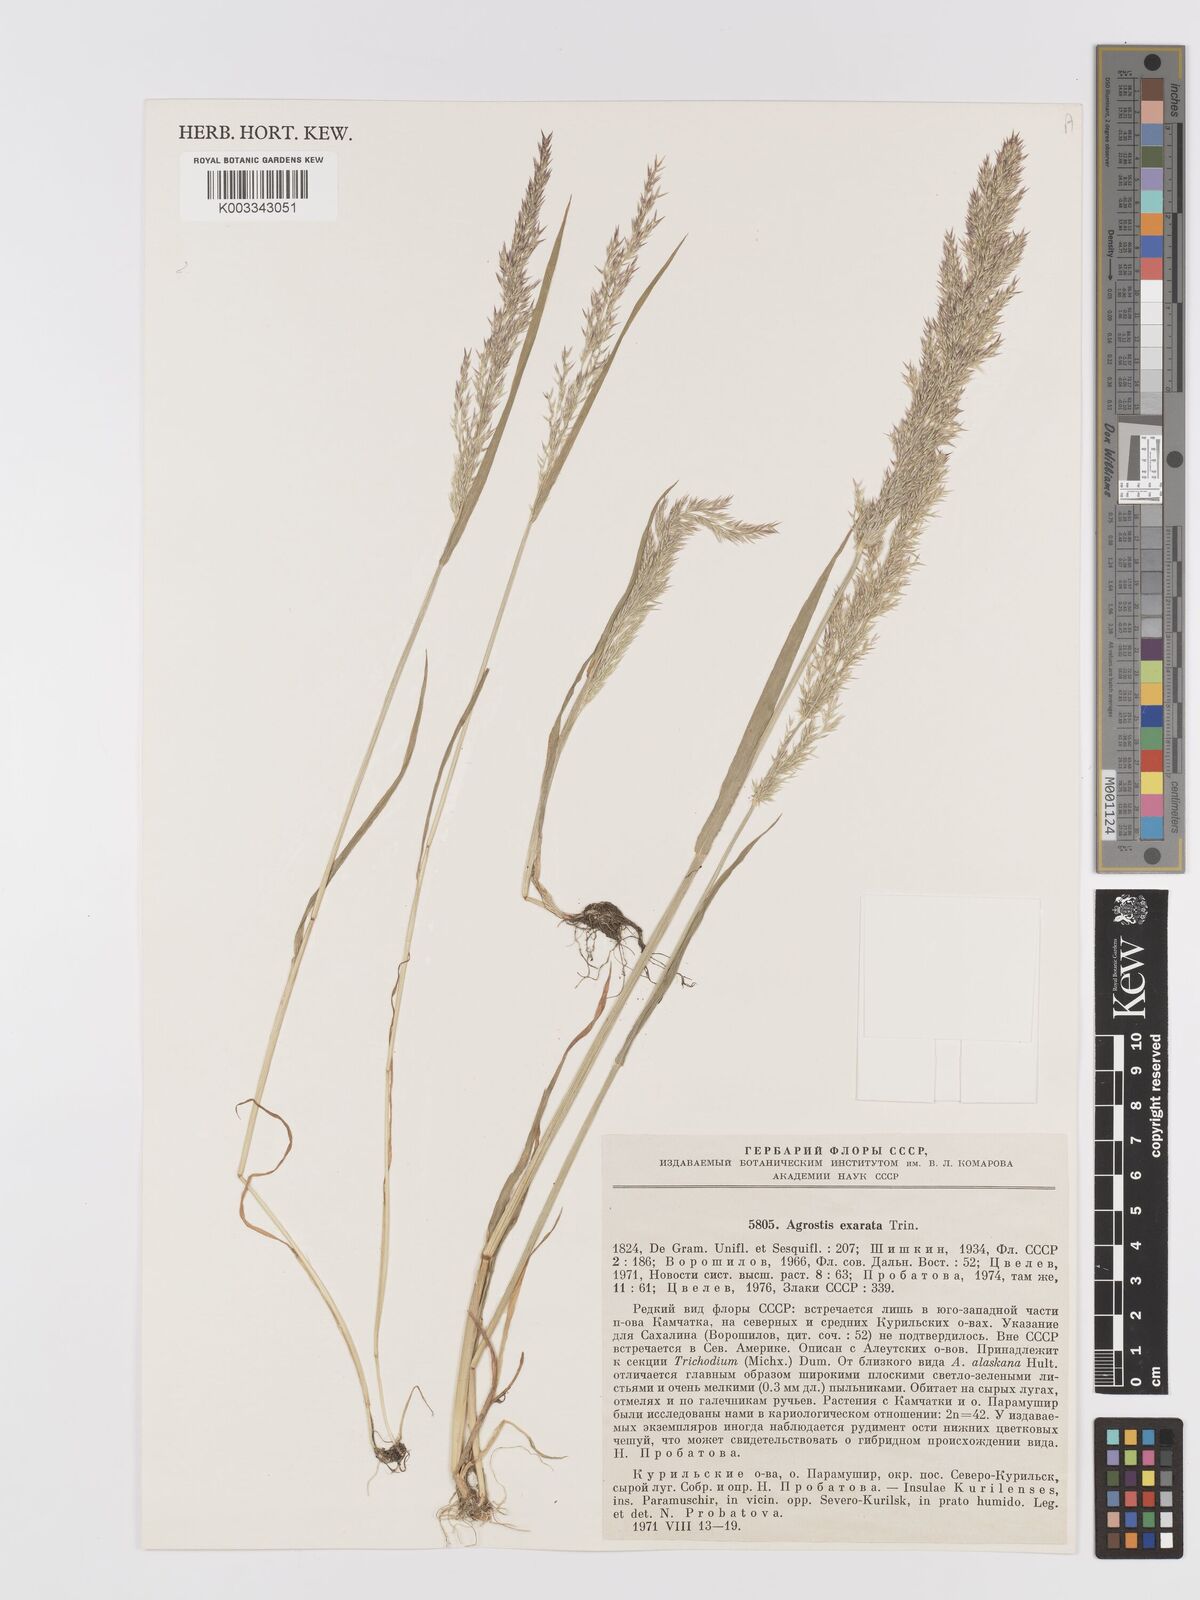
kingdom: Plantae
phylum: Tracheophyta
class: Liliopsida
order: Poales
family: Poaceae
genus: Agrostis
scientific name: Agrostis scabra
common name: Rough bent
